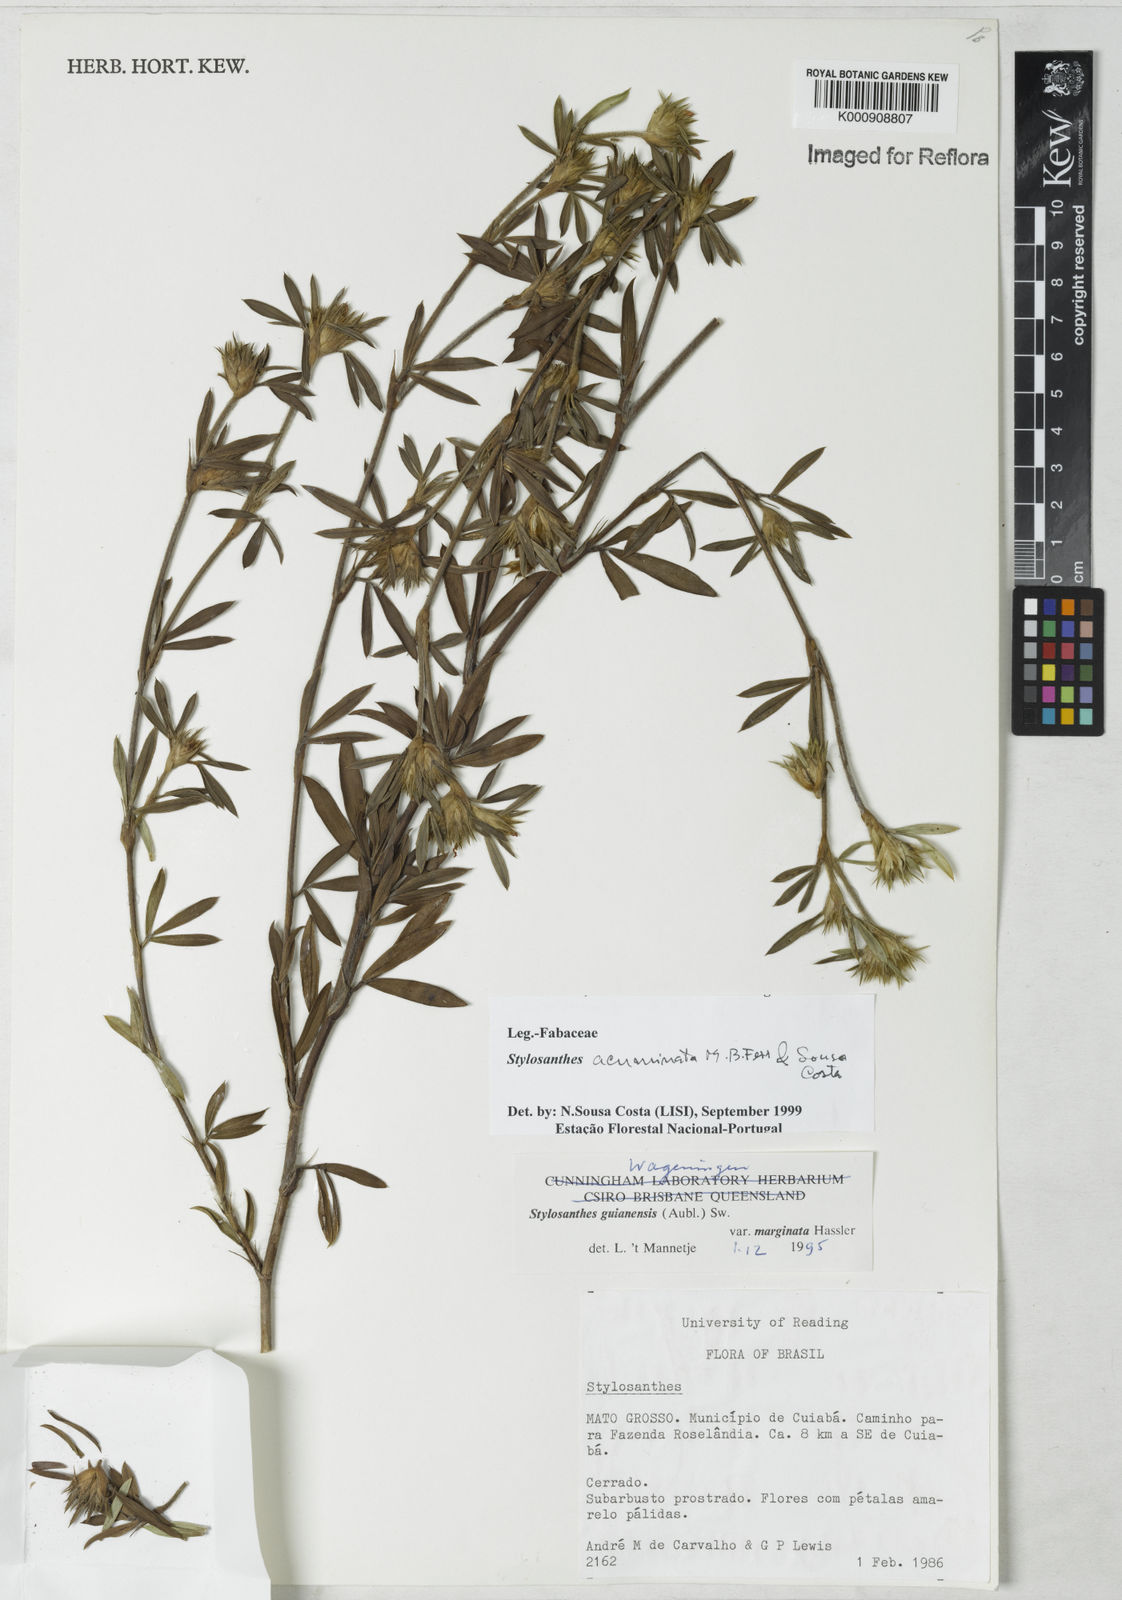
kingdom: Plantae
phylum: Tracheophyta
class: Magnoliopsida
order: Fabales
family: Fabaceae
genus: Stylosanthes
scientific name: Stylosanthes guianensis
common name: Pencil flower
